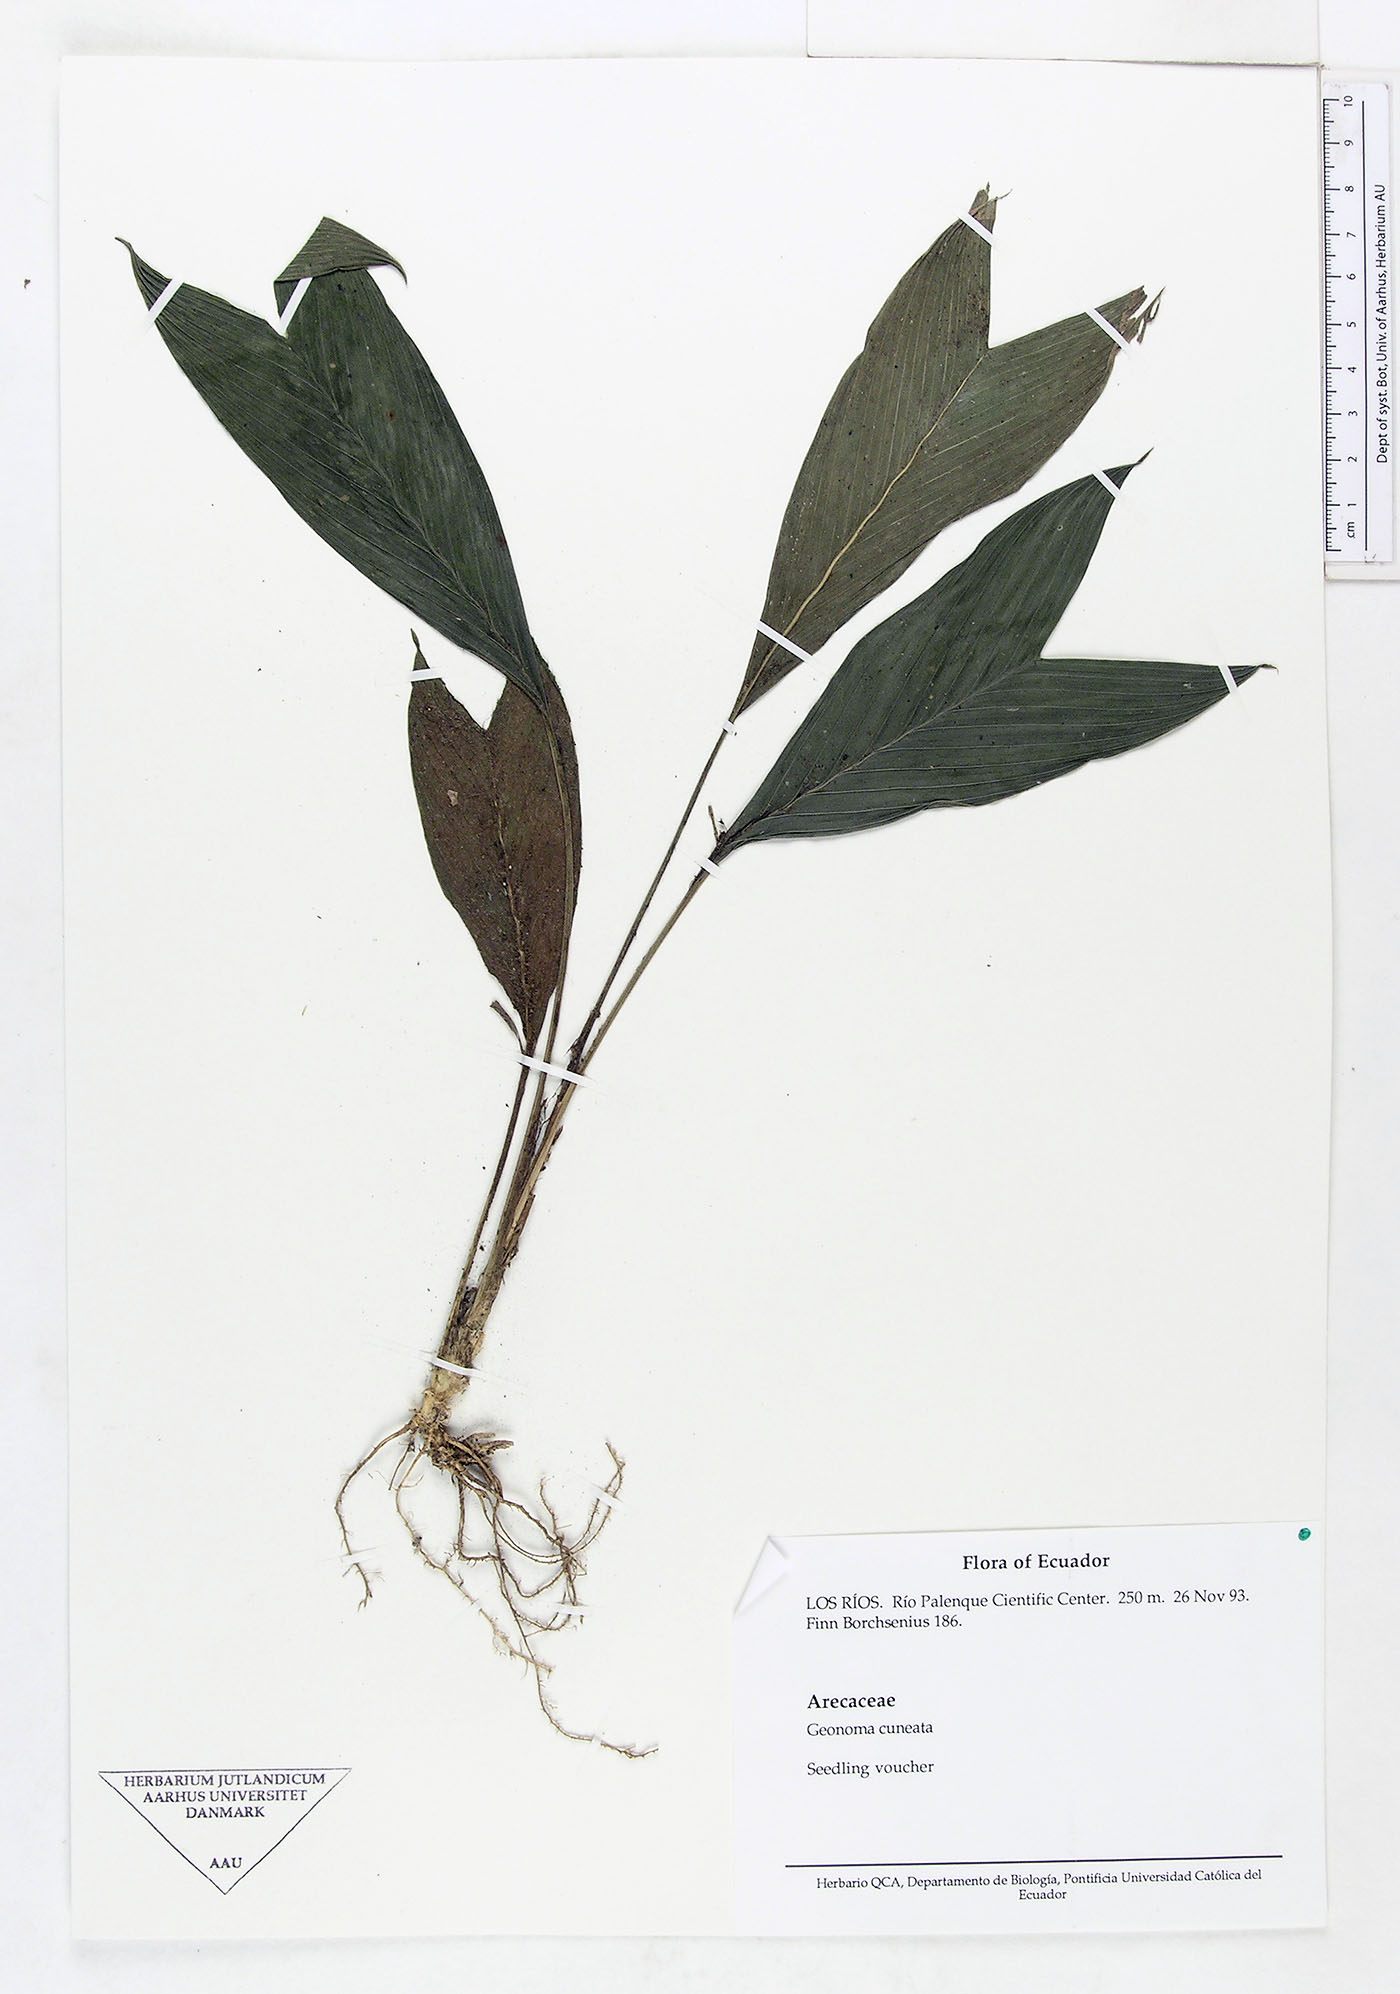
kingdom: Plantae
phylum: Tracheophyta
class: Liliopsida
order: Arecales
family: Arecaceae
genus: Geonoma
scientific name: Geonoma cuneata
